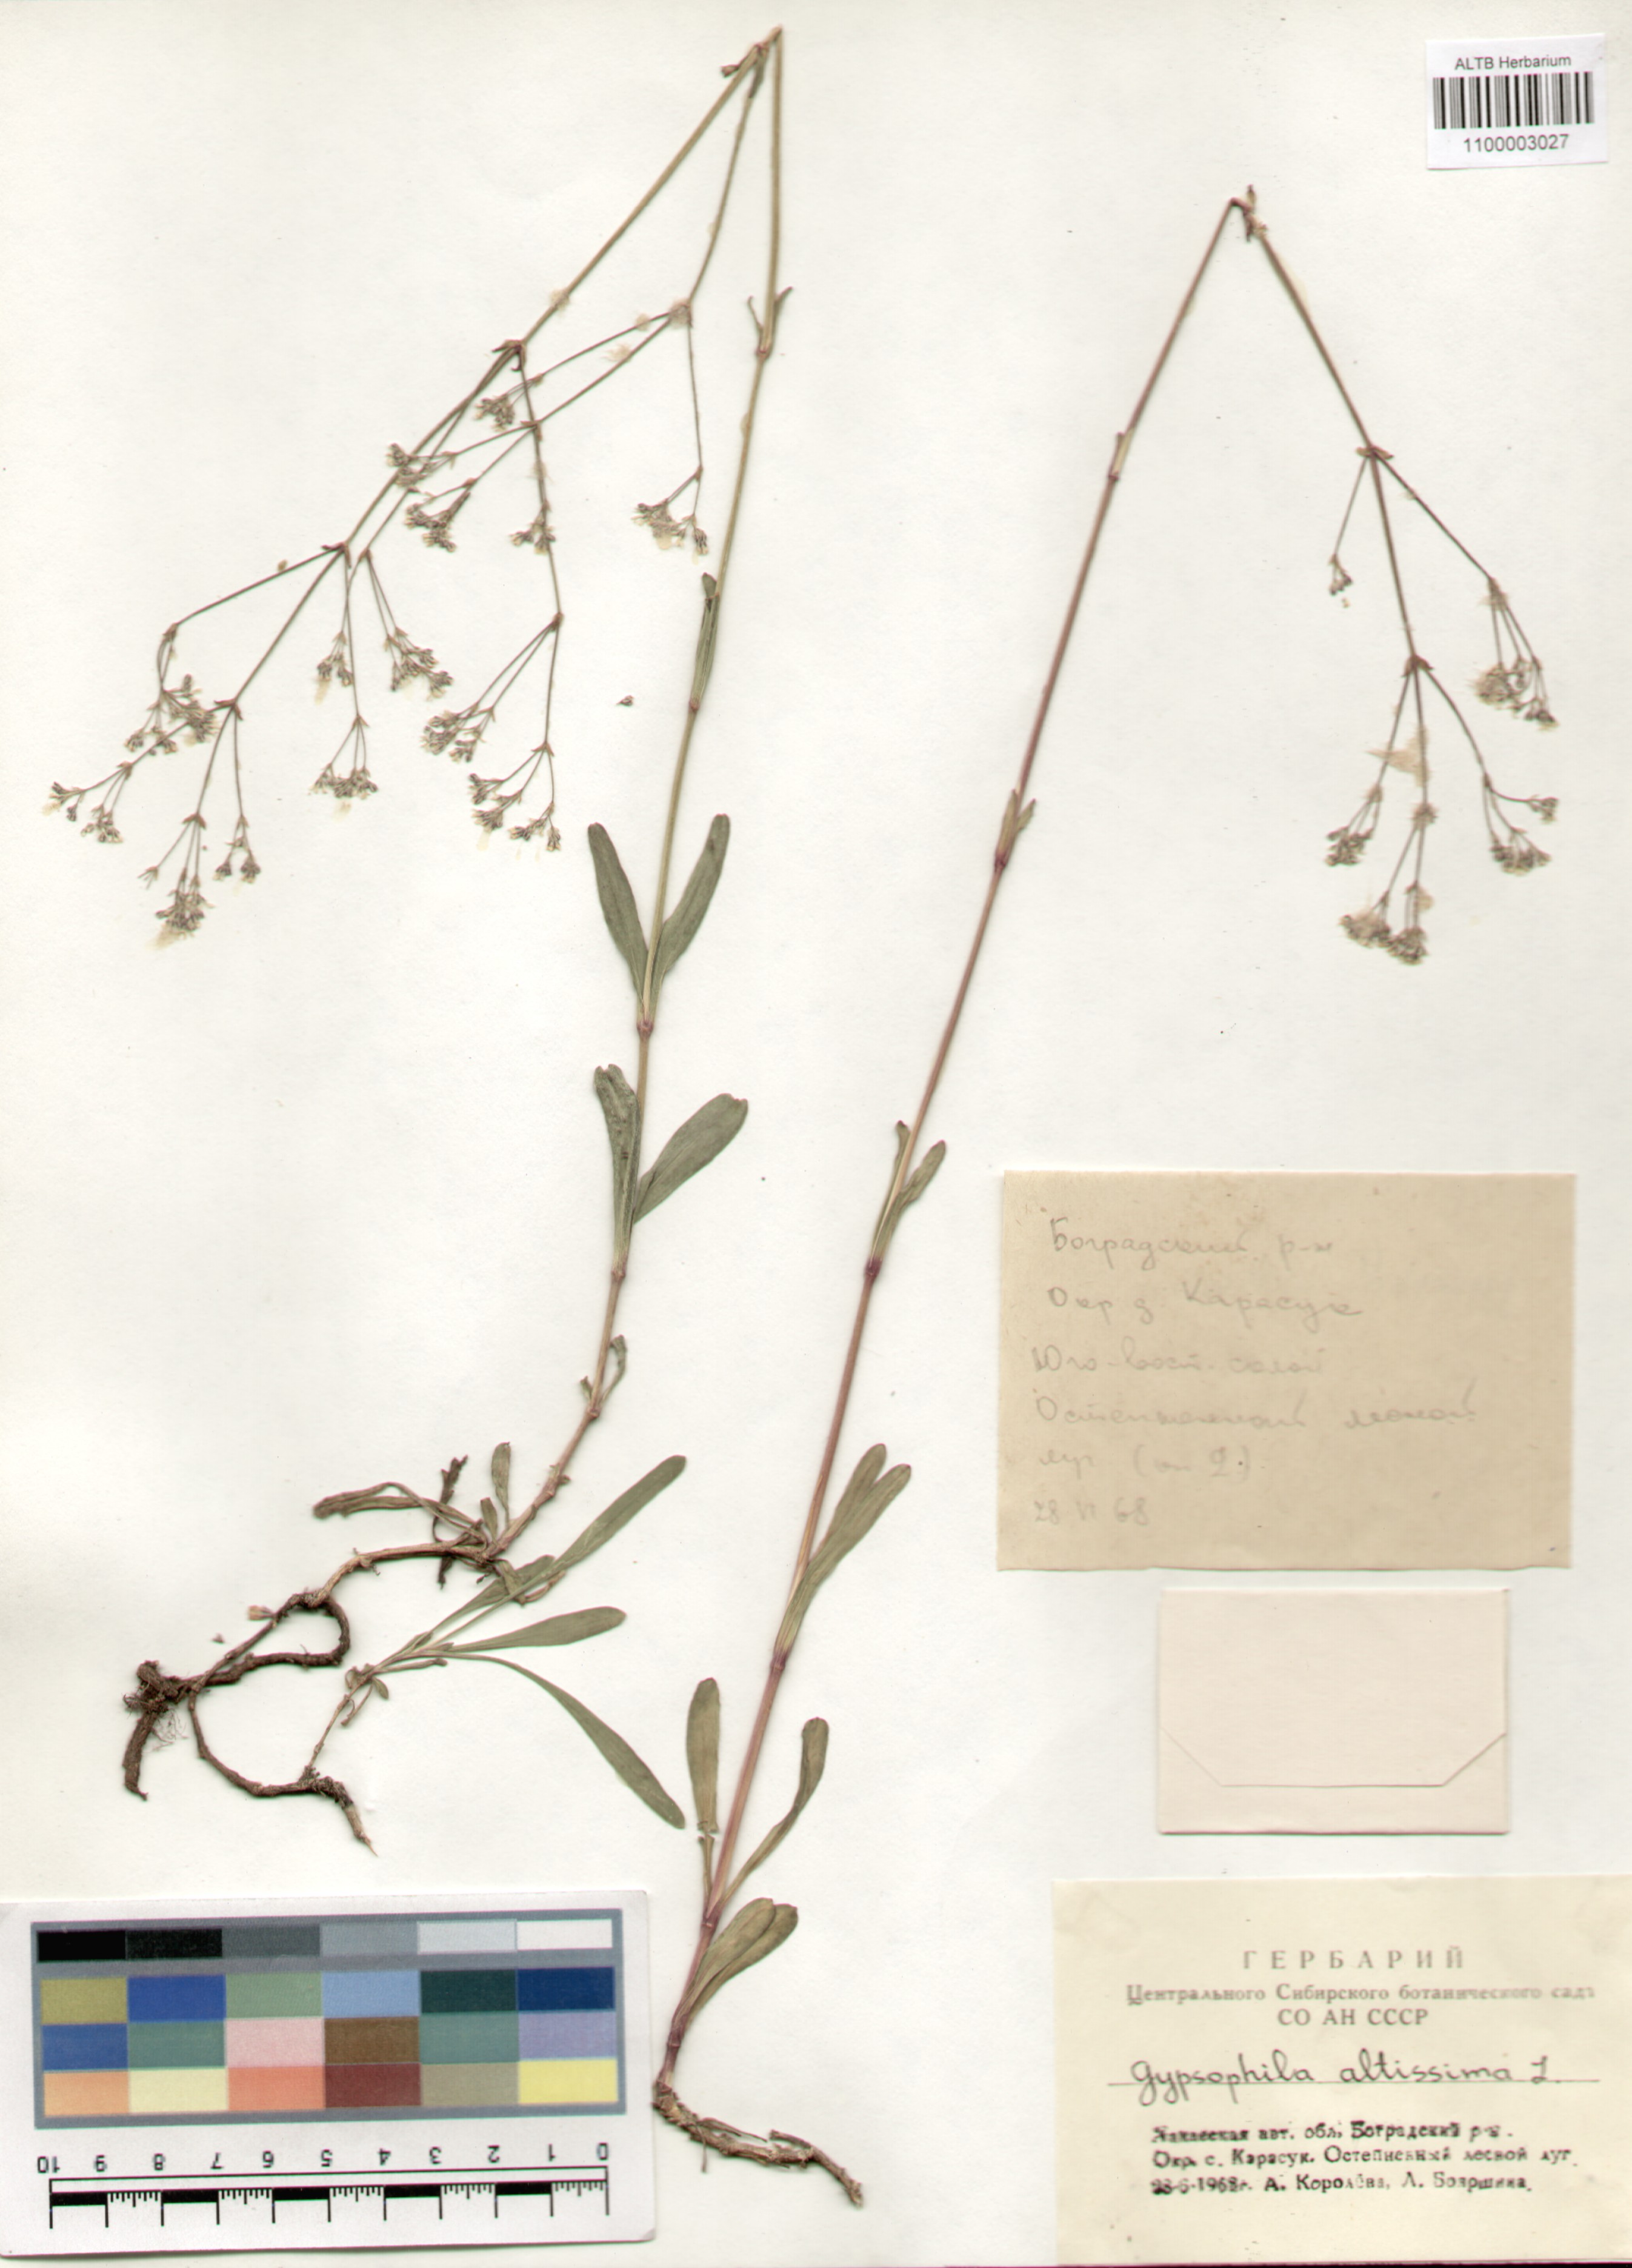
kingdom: Plantae
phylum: Tracheophyta
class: Magnoliopsida
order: Caryophyllales
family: Caryophyllaceae
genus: Gypsophila
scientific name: Gypsophila altissima
